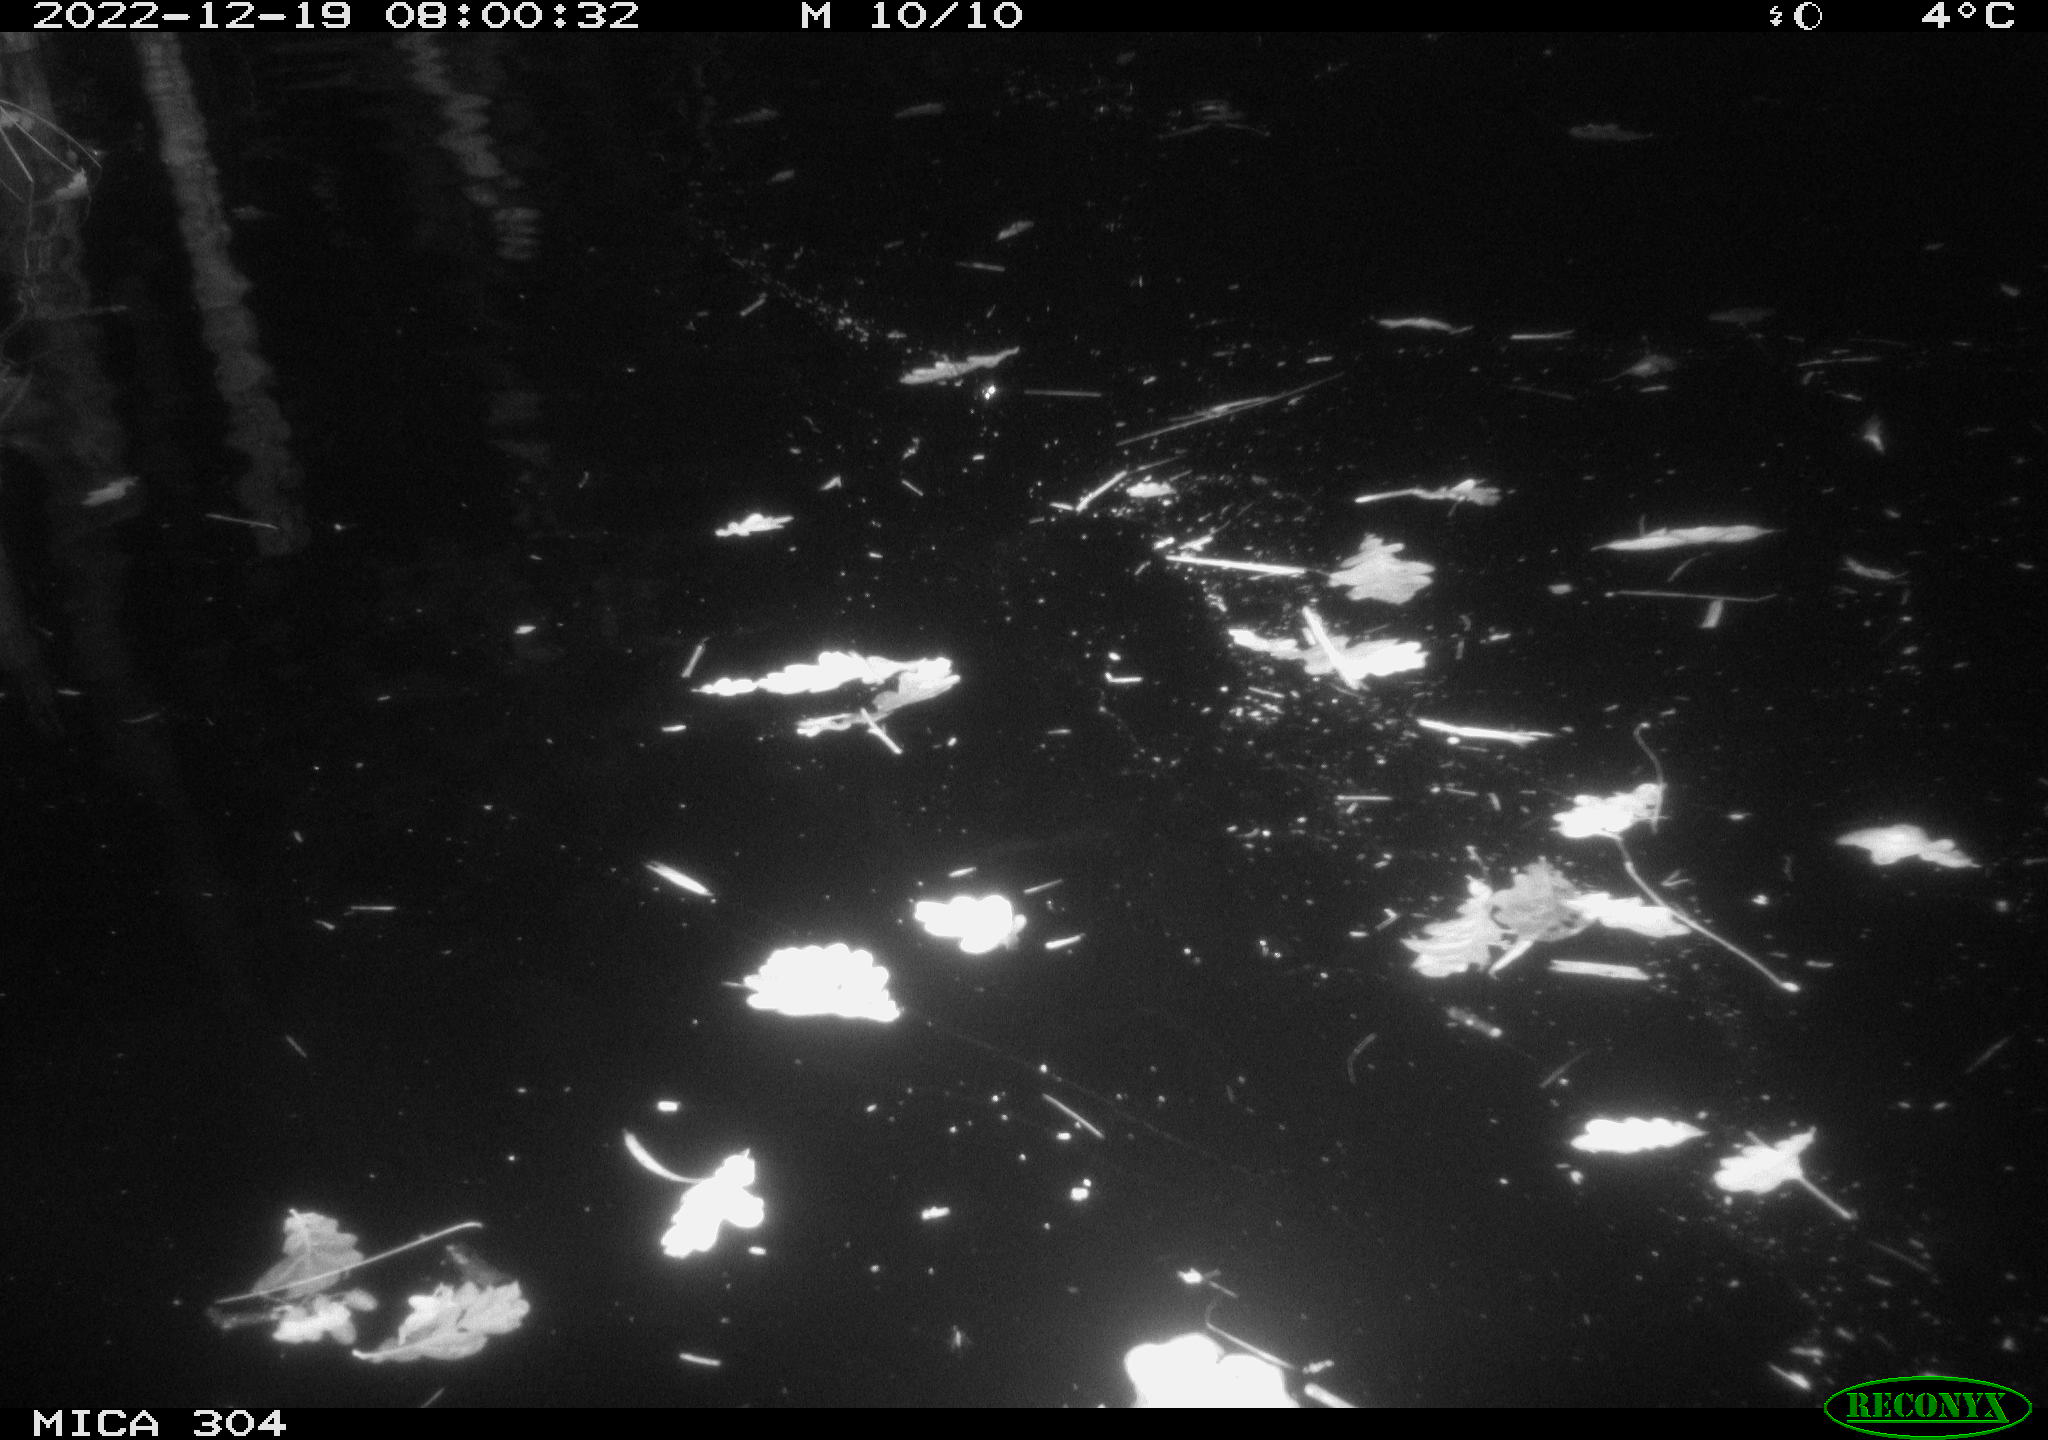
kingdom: Animalia
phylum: Chordata
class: Aves
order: Gruiformes
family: Rallidae
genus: Gallinula
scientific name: Gallinula chloropus
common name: Common moorhen
